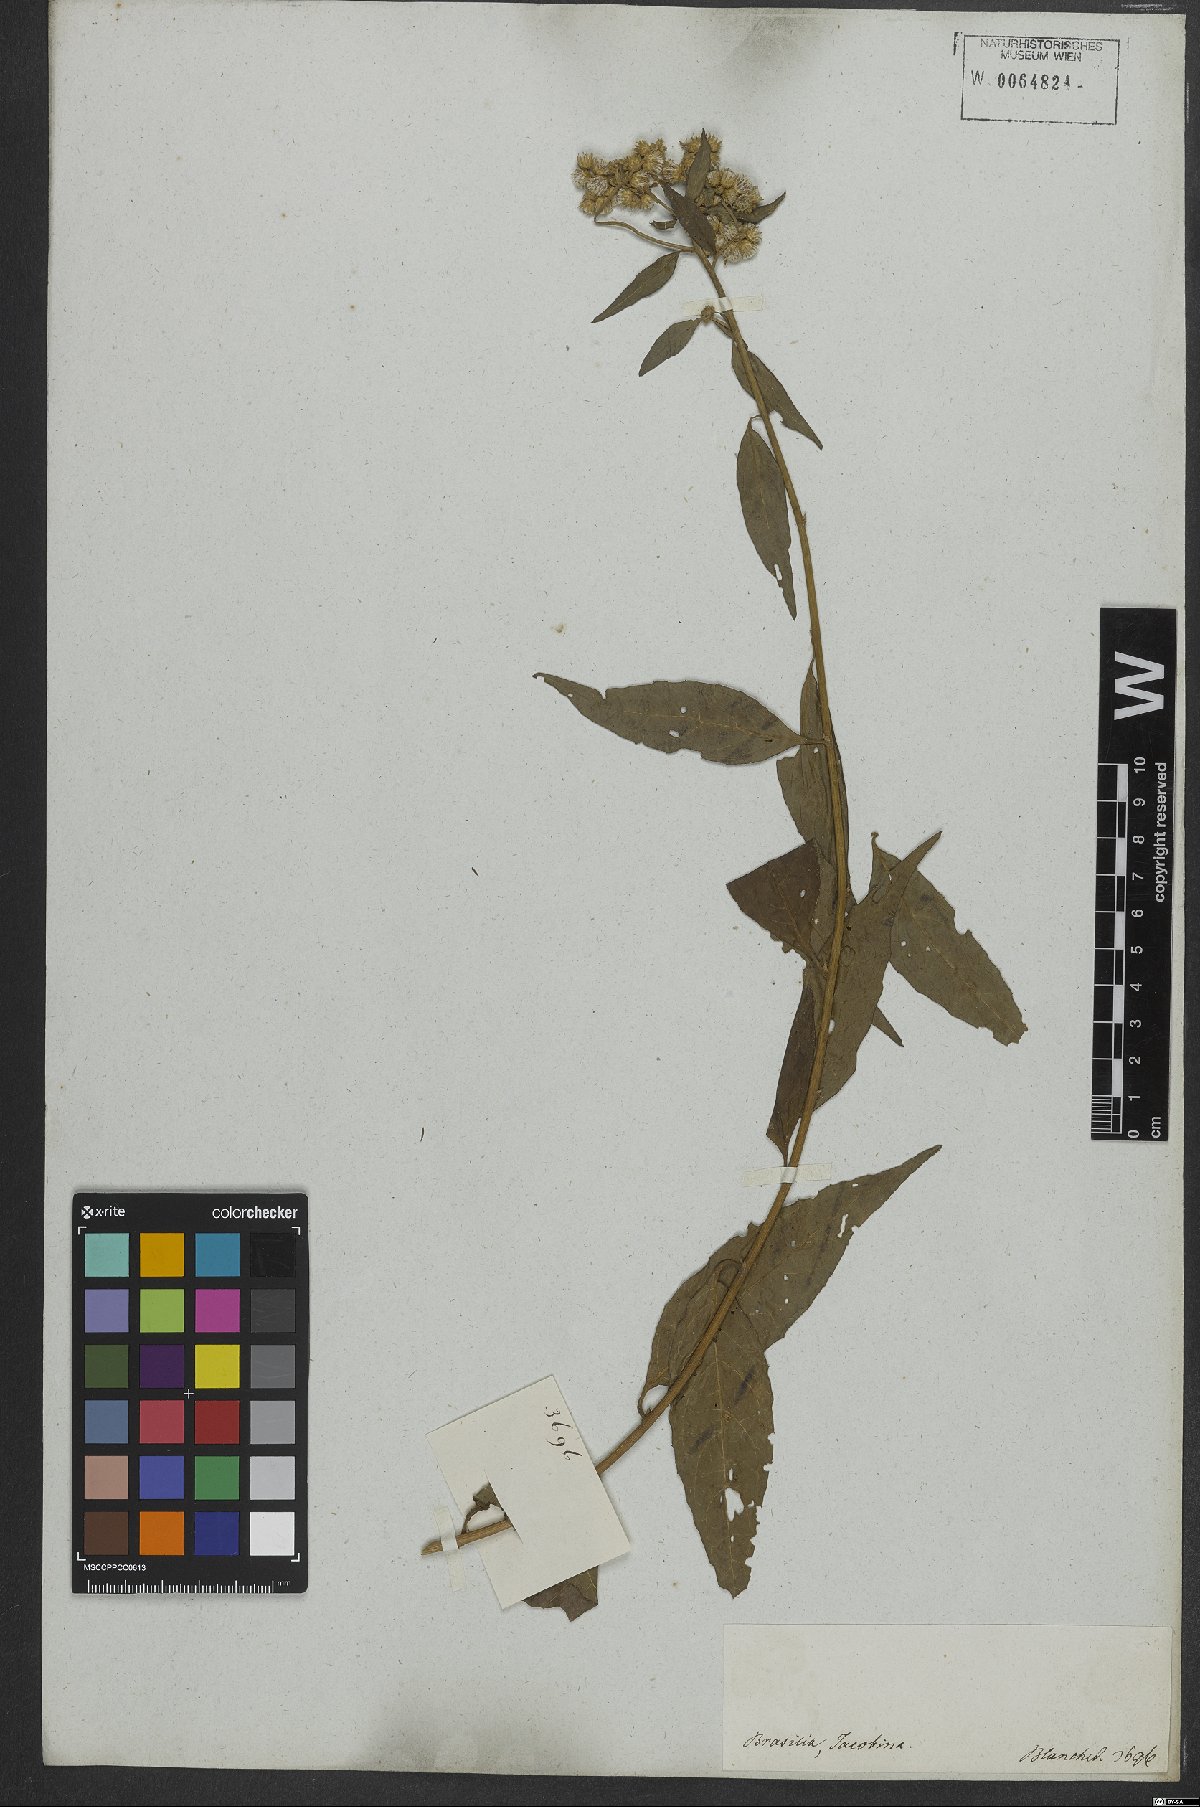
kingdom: Plantae
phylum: Tracheophyta
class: Magnoliopsida
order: Asterales
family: Asteraceae
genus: Cyrtocymura
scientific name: Cyrtocymura scorpioides
